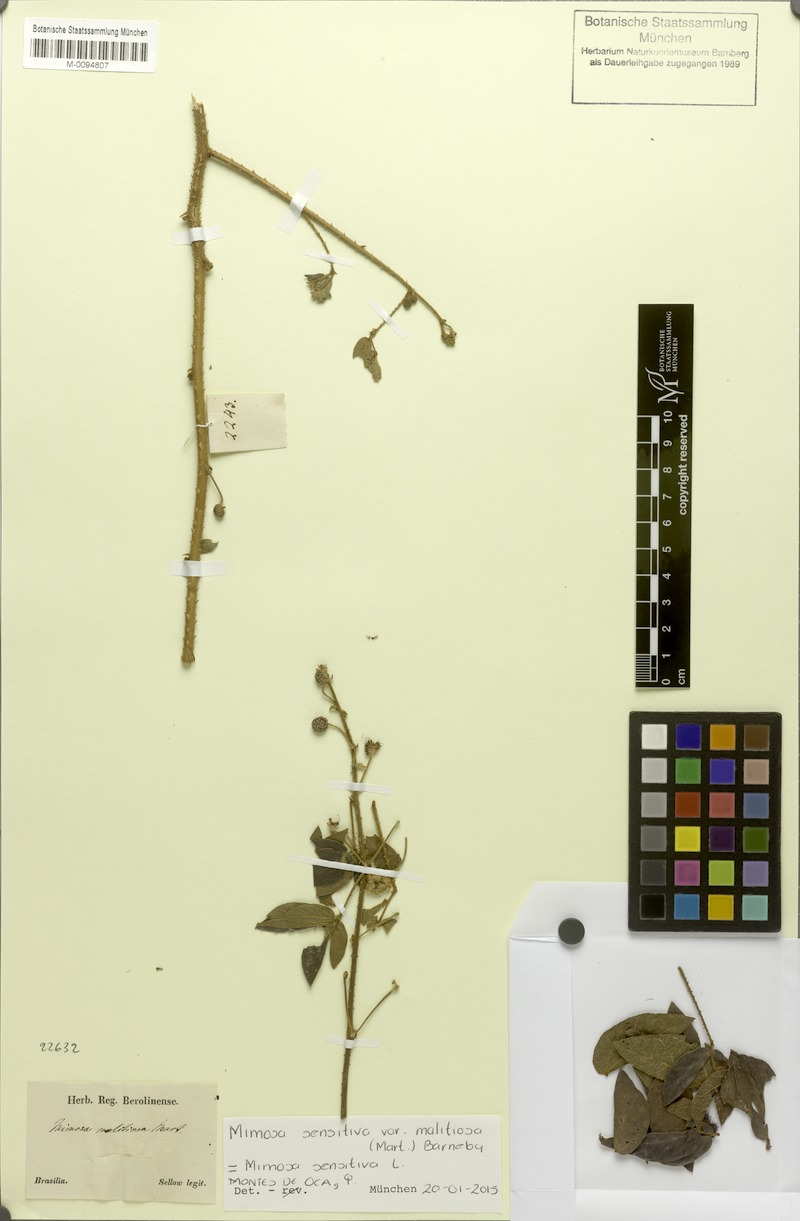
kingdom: Plantae
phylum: Tracheophyta
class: Magnoliopsida
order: Fabales
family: Fabaceae
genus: Mimosa
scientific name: Mimosa sensitiva
